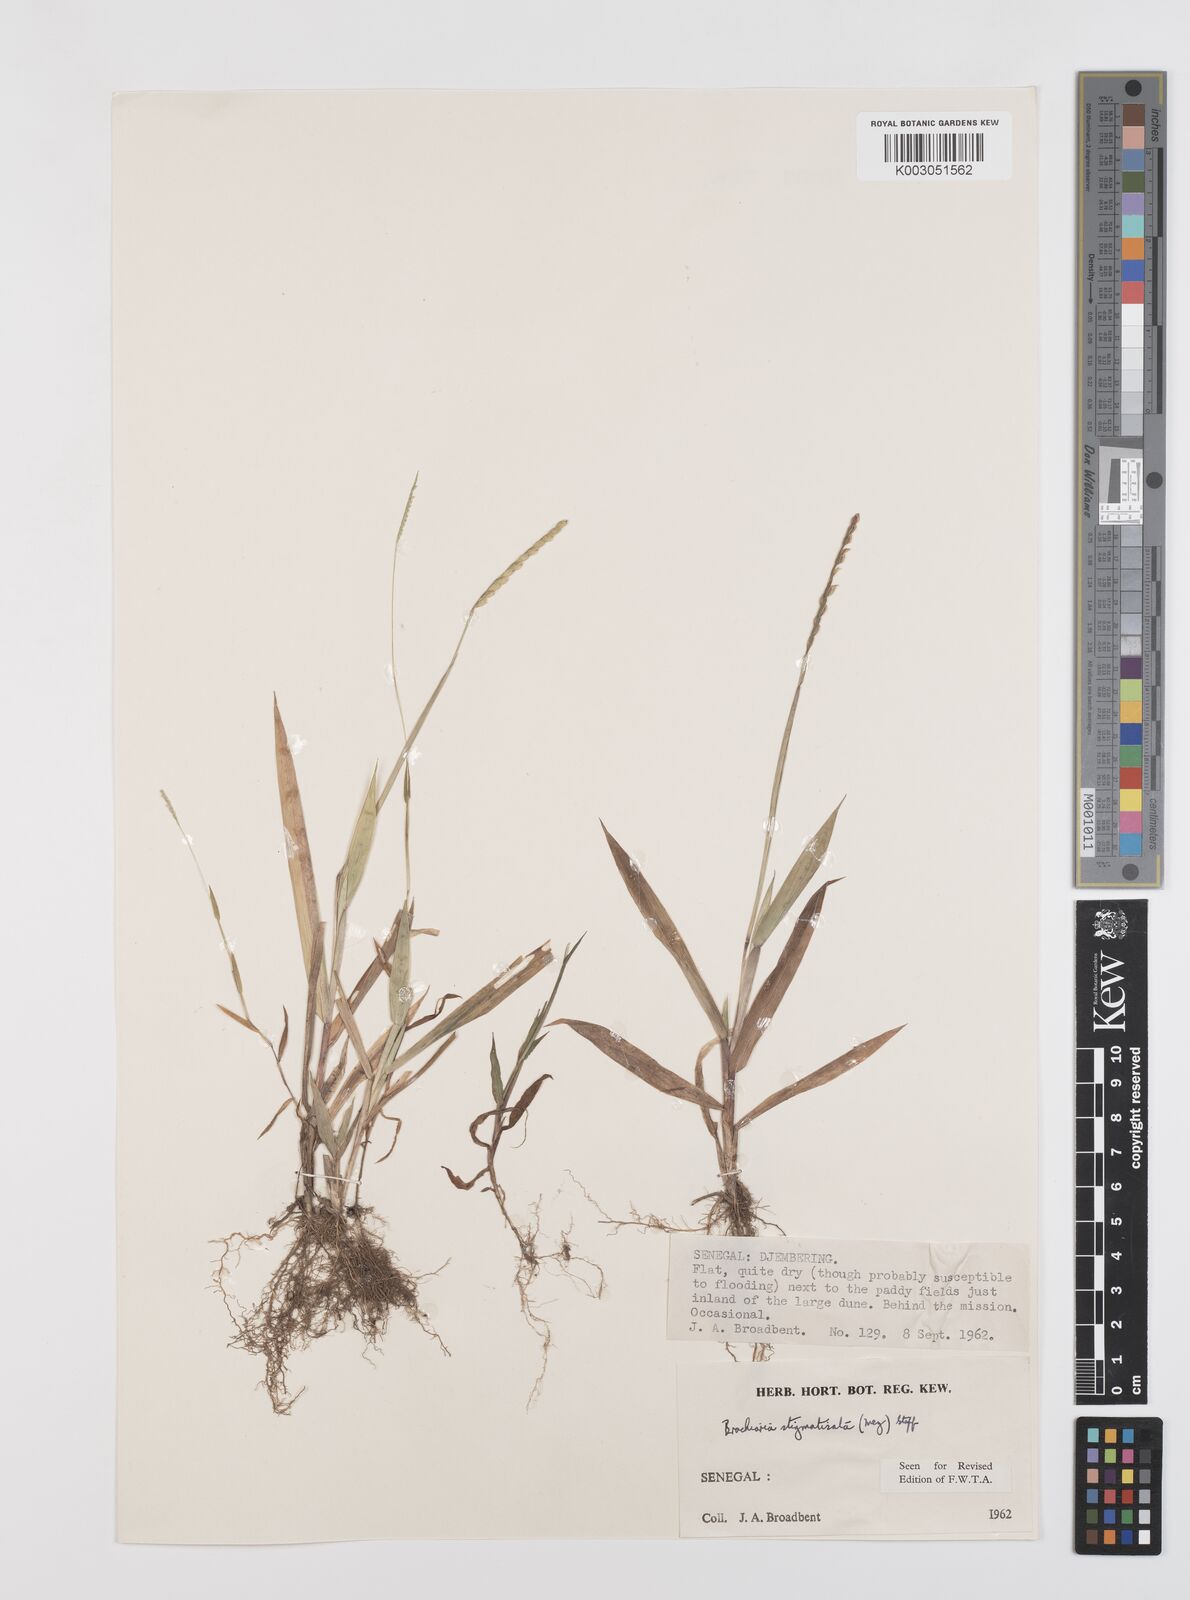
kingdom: Plantae
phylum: Tracheophyta
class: Liliopsida
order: Poales
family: Poaceae
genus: Urochloa
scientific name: Urochloa stigmatisata
